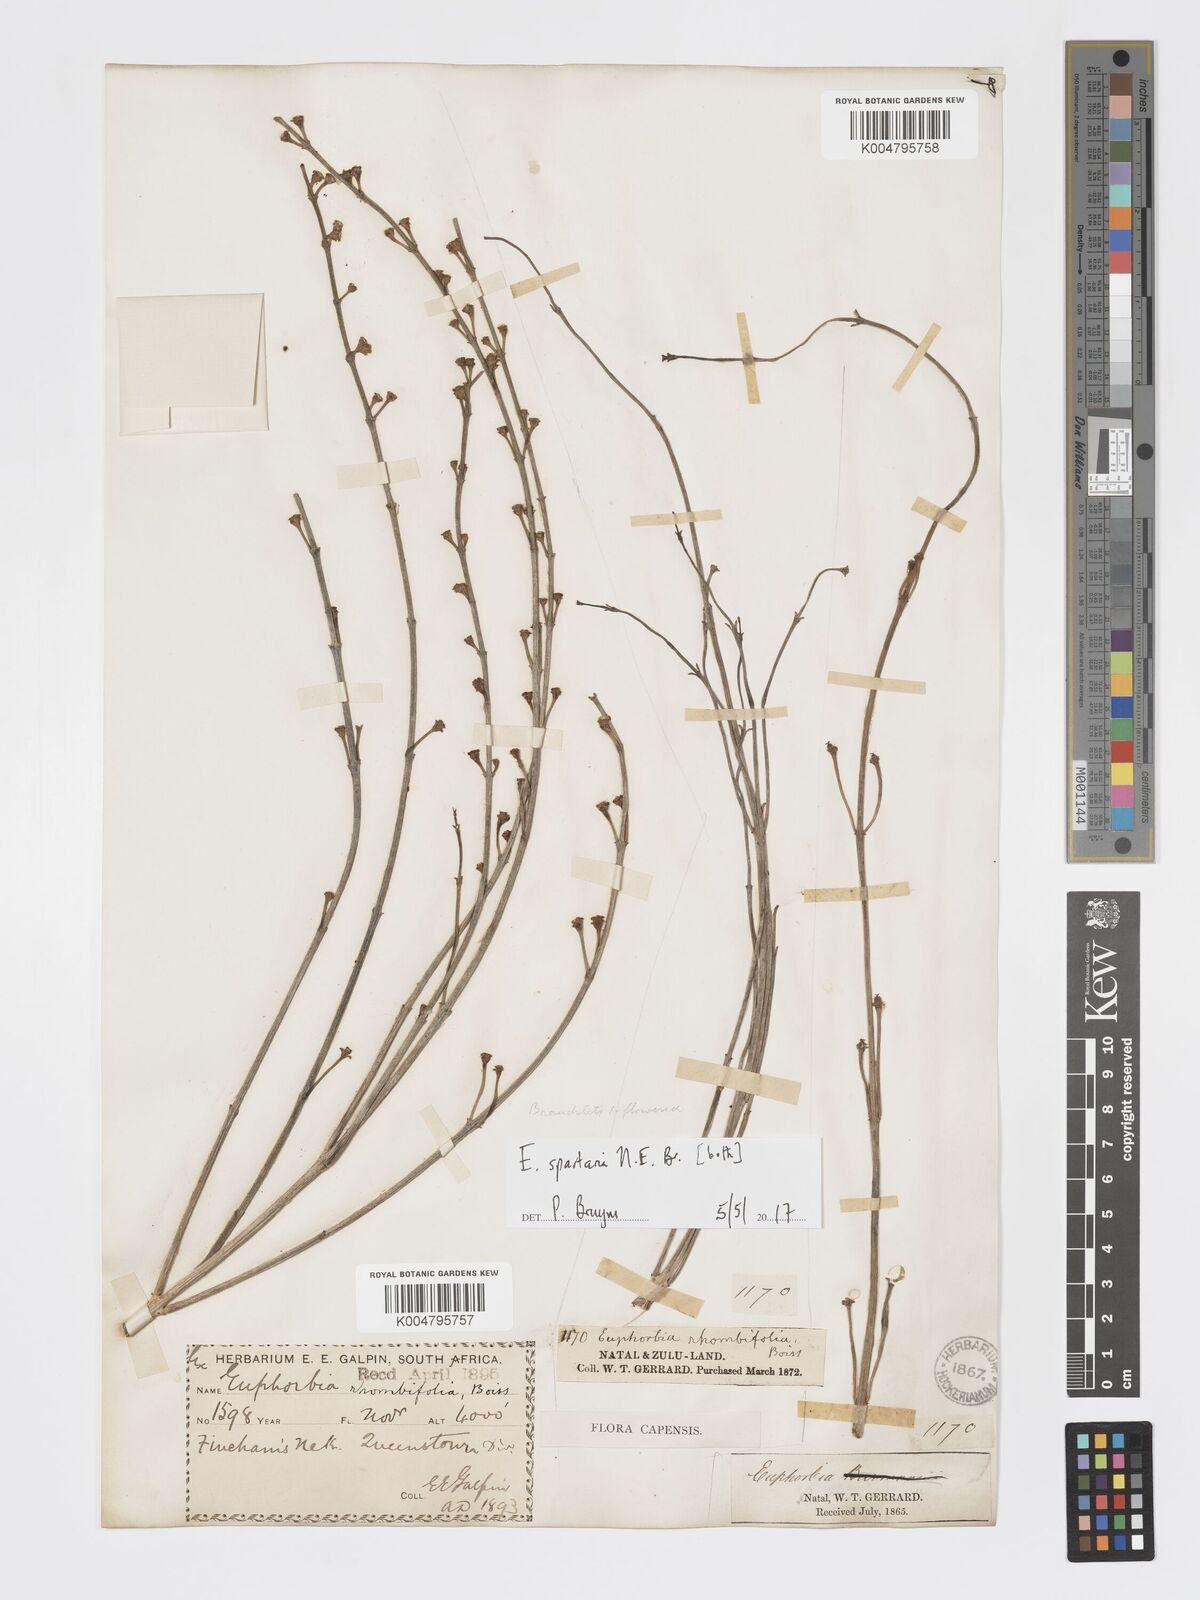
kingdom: Plantae
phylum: Tracheophyta
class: Magnoliopsida
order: Malpighiales
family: Euphorbiaceae
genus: Euphorbia
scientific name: Euphorbia spartaria
